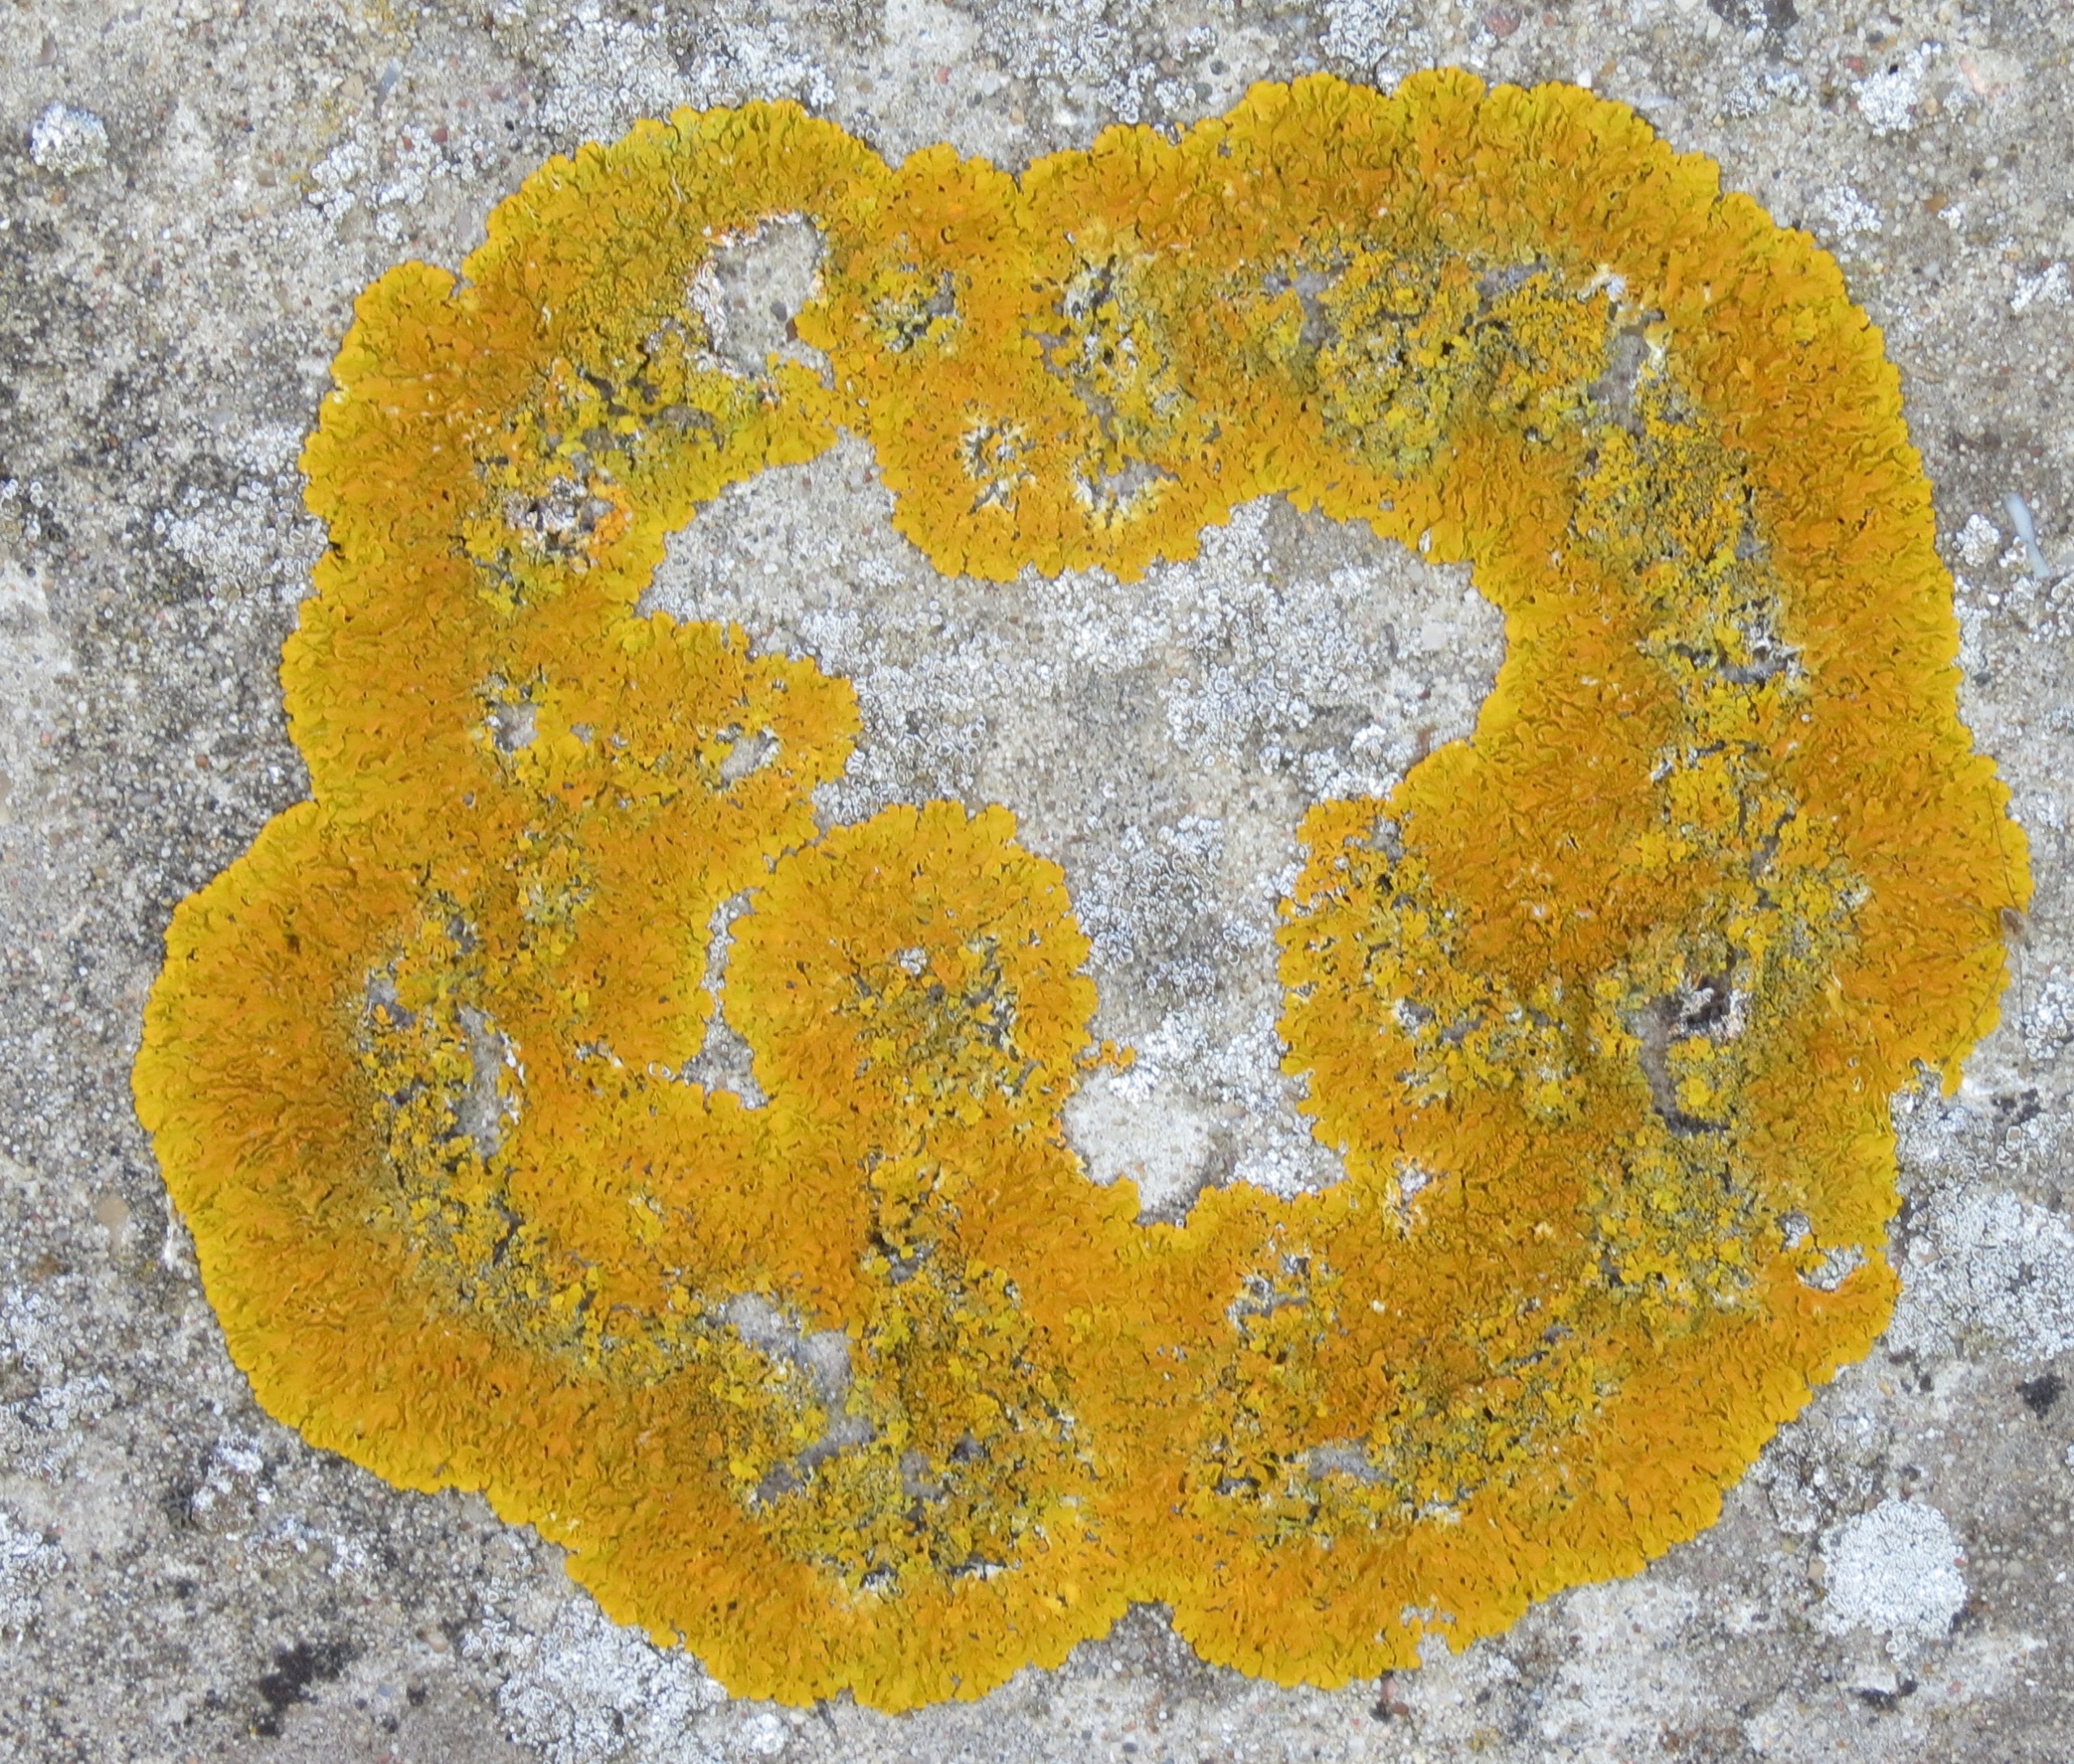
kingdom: Fungi
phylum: Ascomycota
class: Lecanoromycetes
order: Teloschistales
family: Teloschistaceae
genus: Xanthoria
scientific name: Xanthoria parietina
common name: Almindelig væggelav
